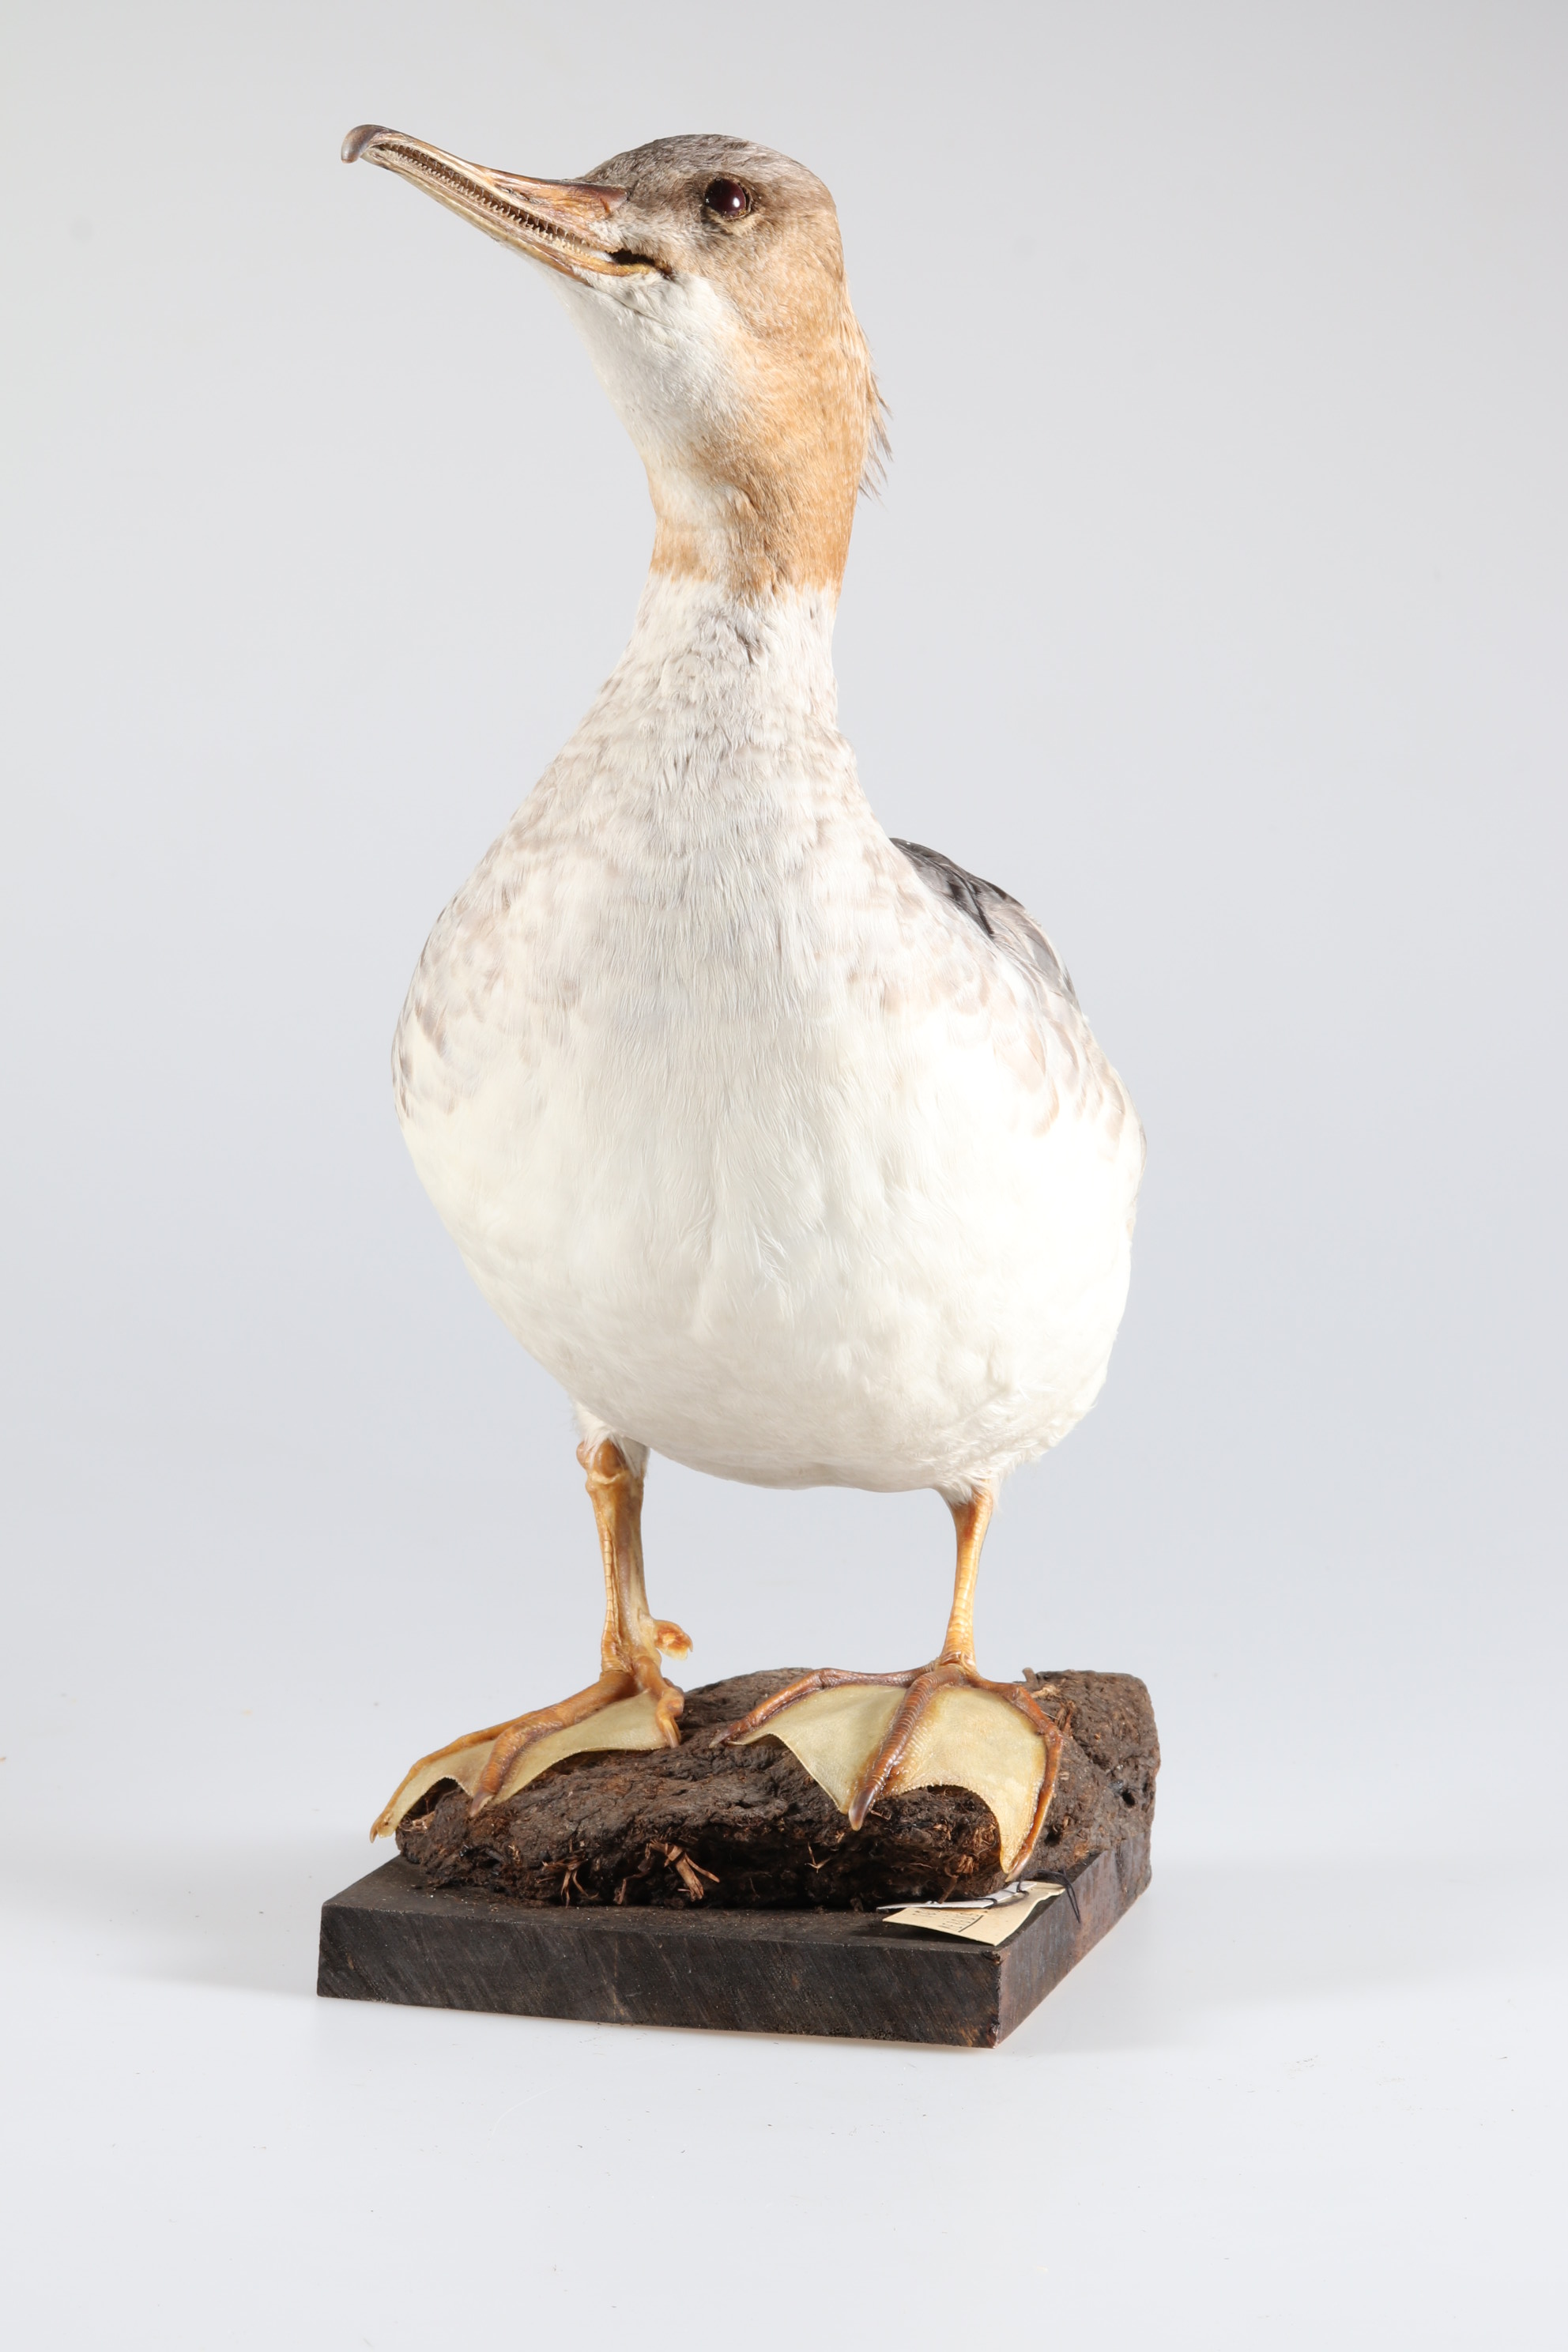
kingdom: Animalia
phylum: Chordata
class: Aves
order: Anseriformes
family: Anatidae
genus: Mergus
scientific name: Mergus merganser
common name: Common merganser
